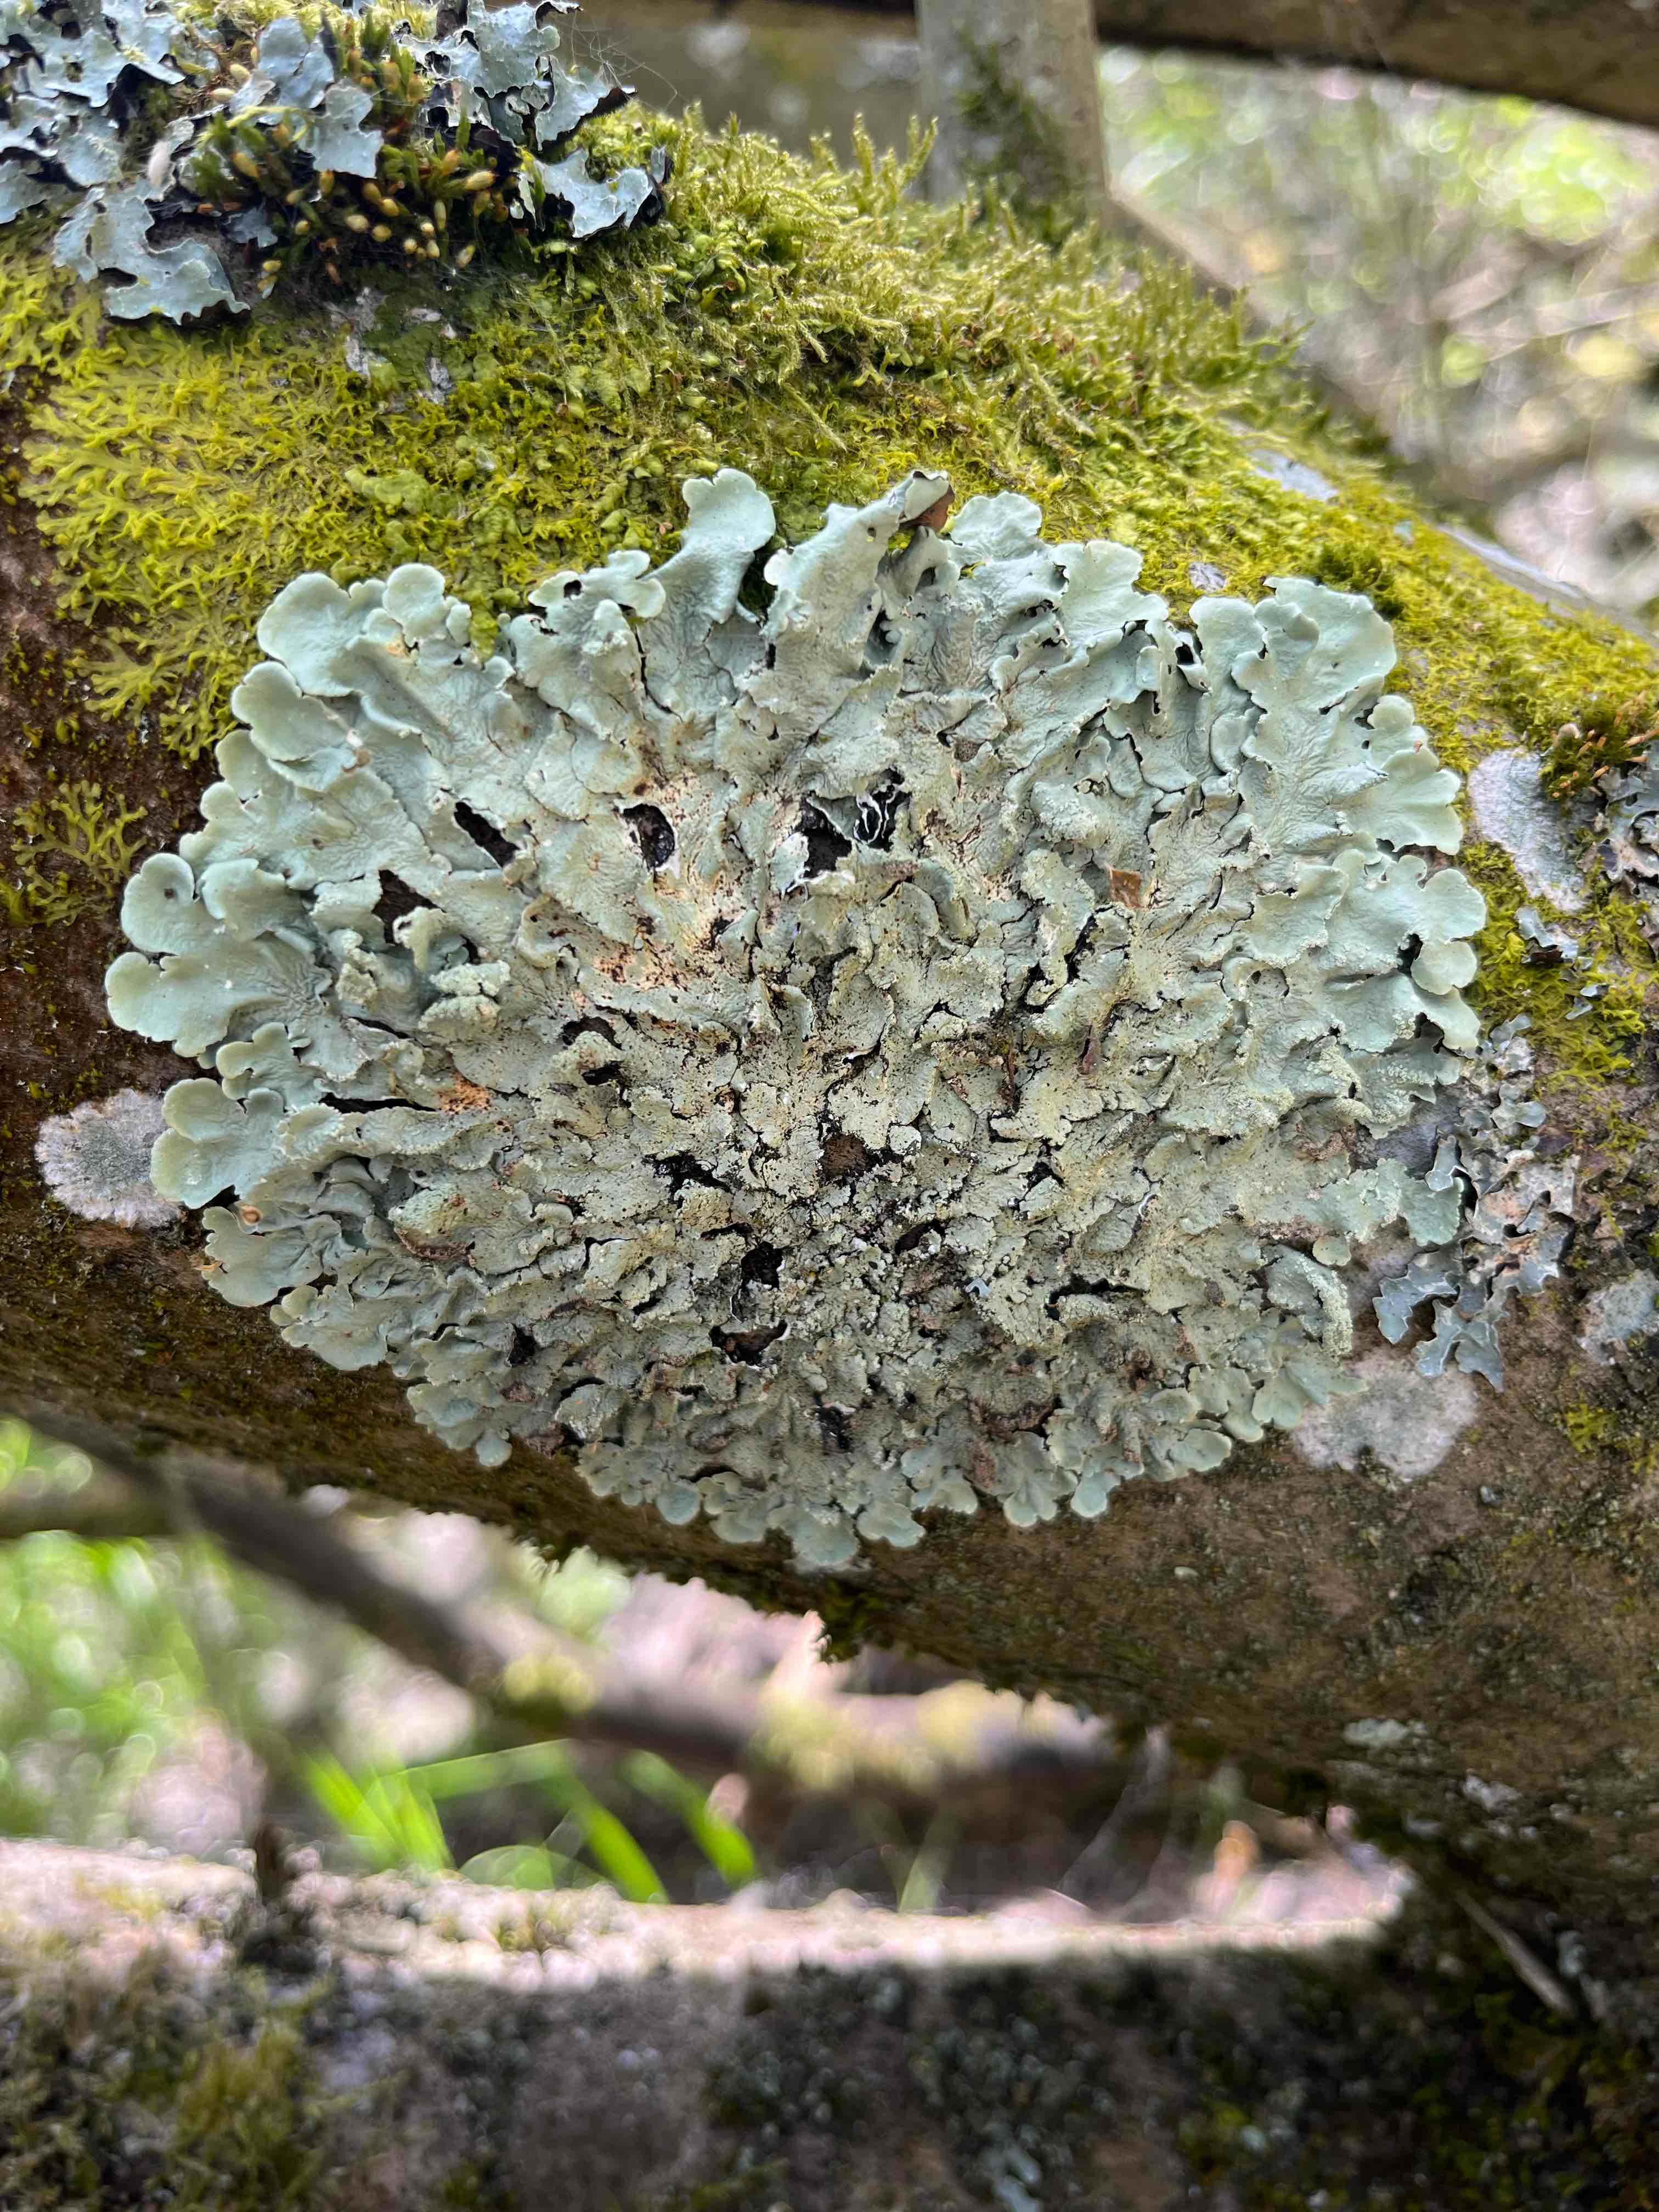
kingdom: Fungi
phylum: Ascomycota
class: Lecanoromycetes
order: Lecanorales
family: Parmeliaceae
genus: Flavoparmelia
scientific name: Flavoparmelia caperata
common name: gulgrøn skållav
